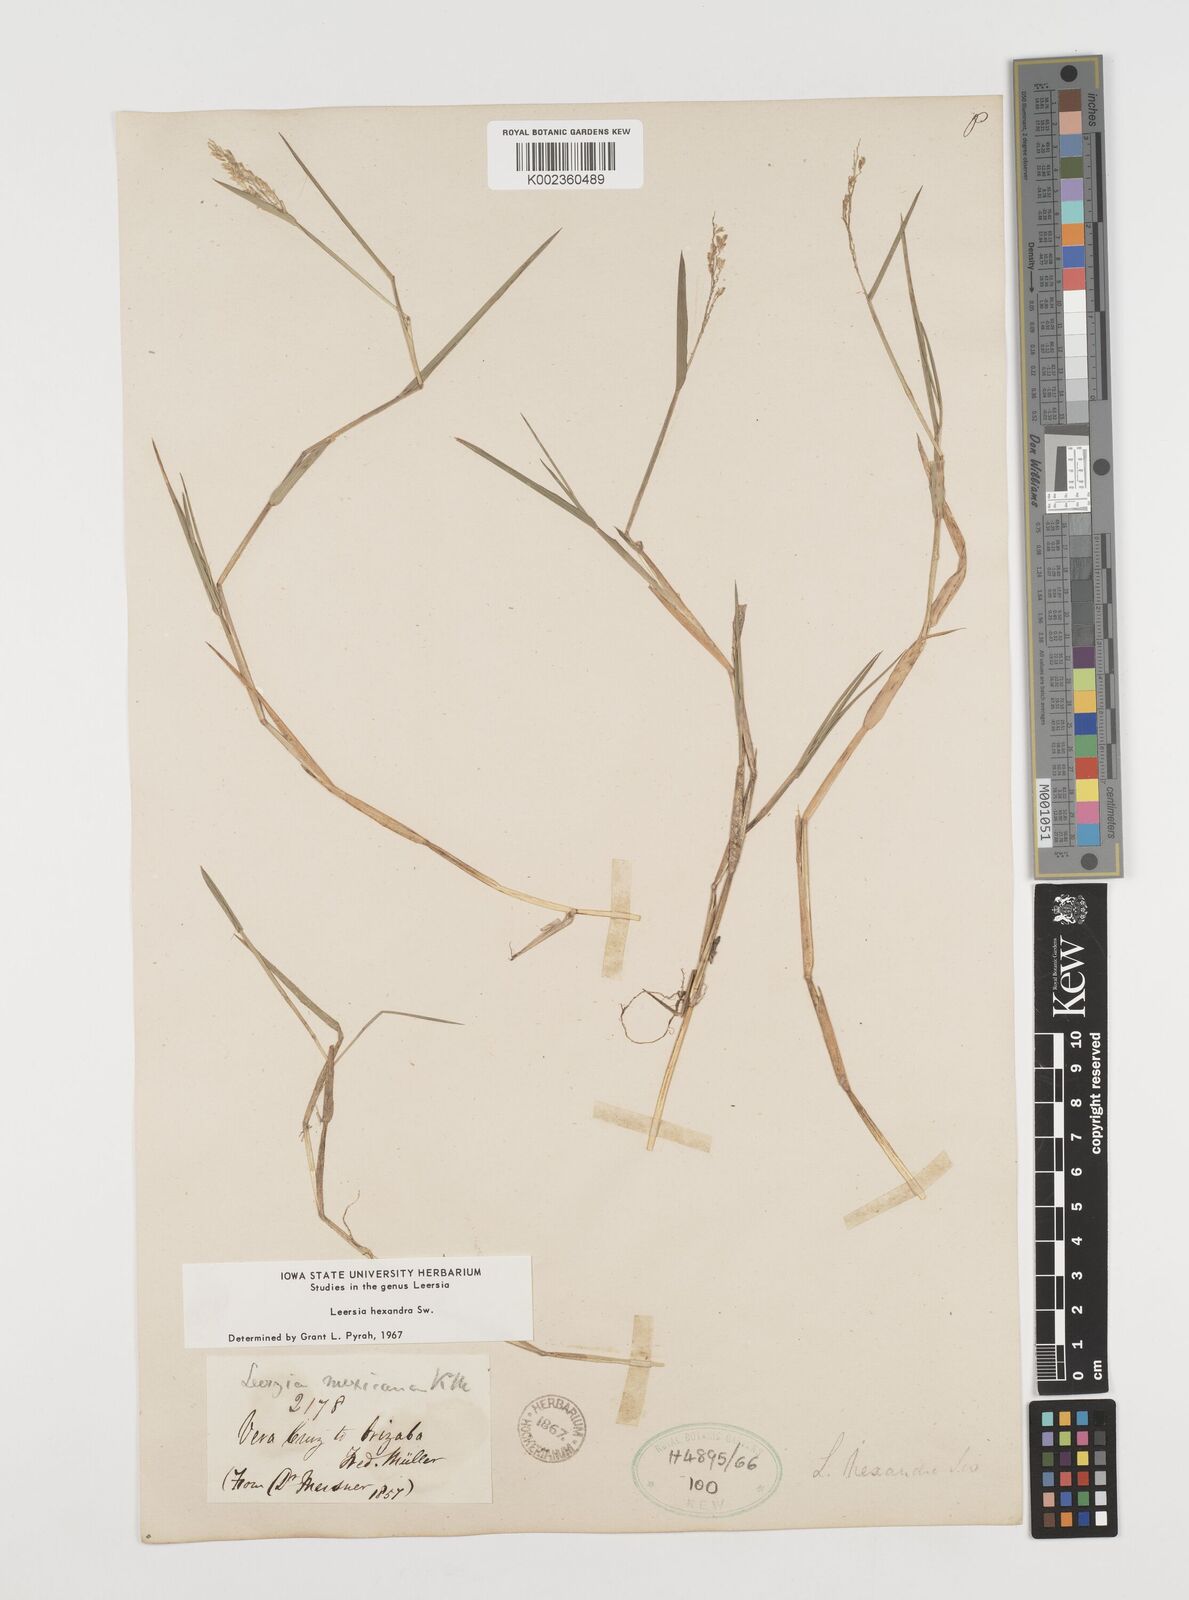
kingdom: Plantae
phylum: Tracheophyta
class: Liliopsida
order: Poales
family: Poaceae
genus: Leersia
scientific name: Leersia hexandra
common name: Southern cut grass
